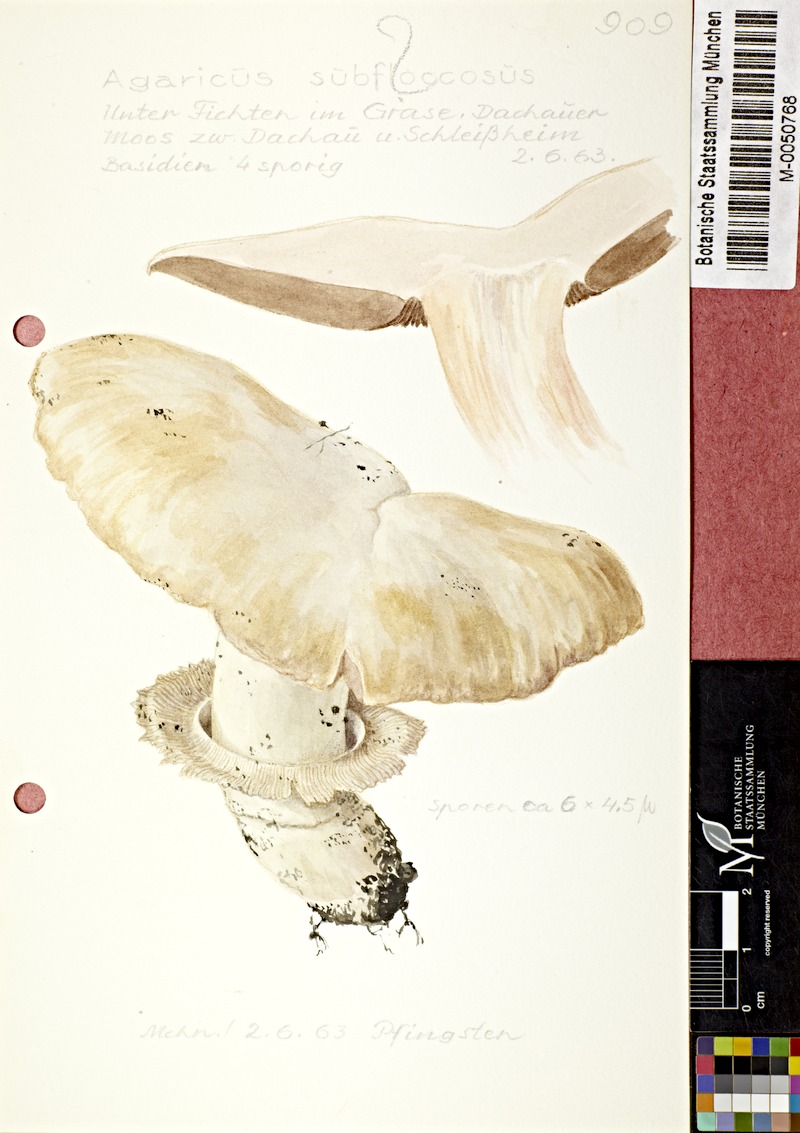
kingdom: Fungi
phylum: Basidiomycota
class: Agaricomycetes
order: Agaricales
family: Agaricaceae
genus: Agaricus
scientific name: Agaricus subfloccosus
